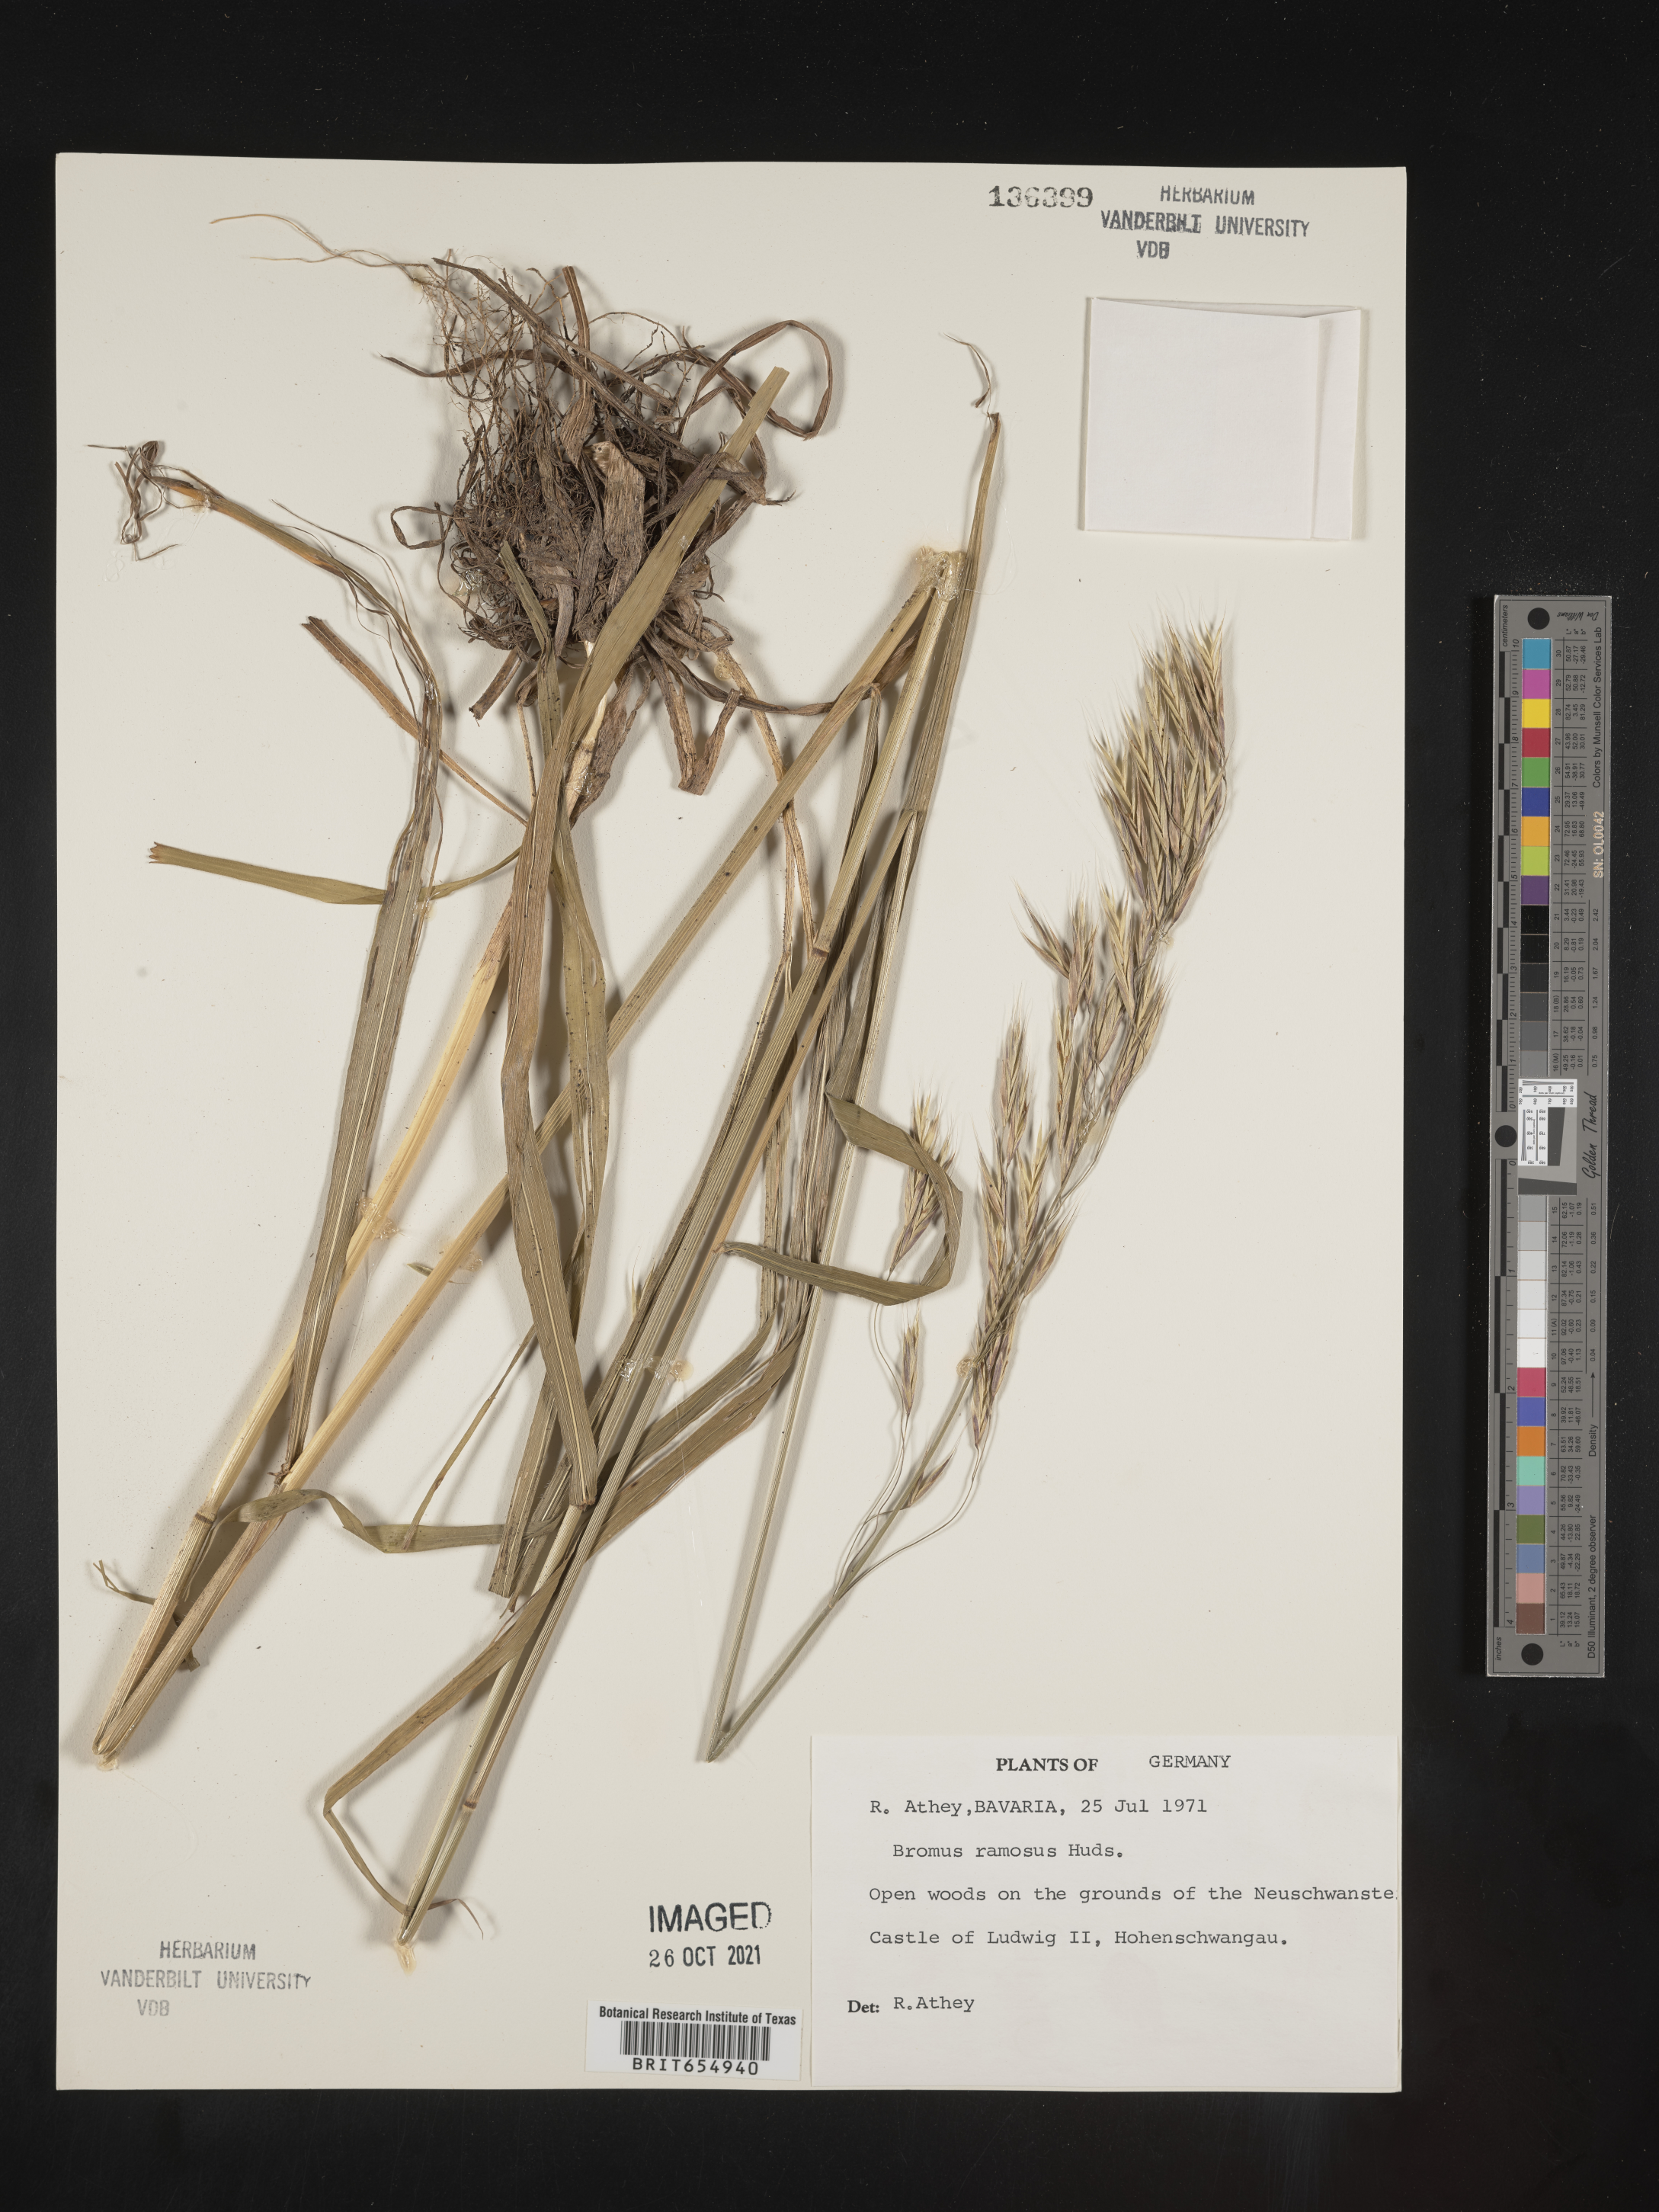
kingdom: Plantae
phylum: Tracheophyta
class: Liliopsida
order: Poales
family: Poaceae
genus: Bromus
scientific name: Bromus
